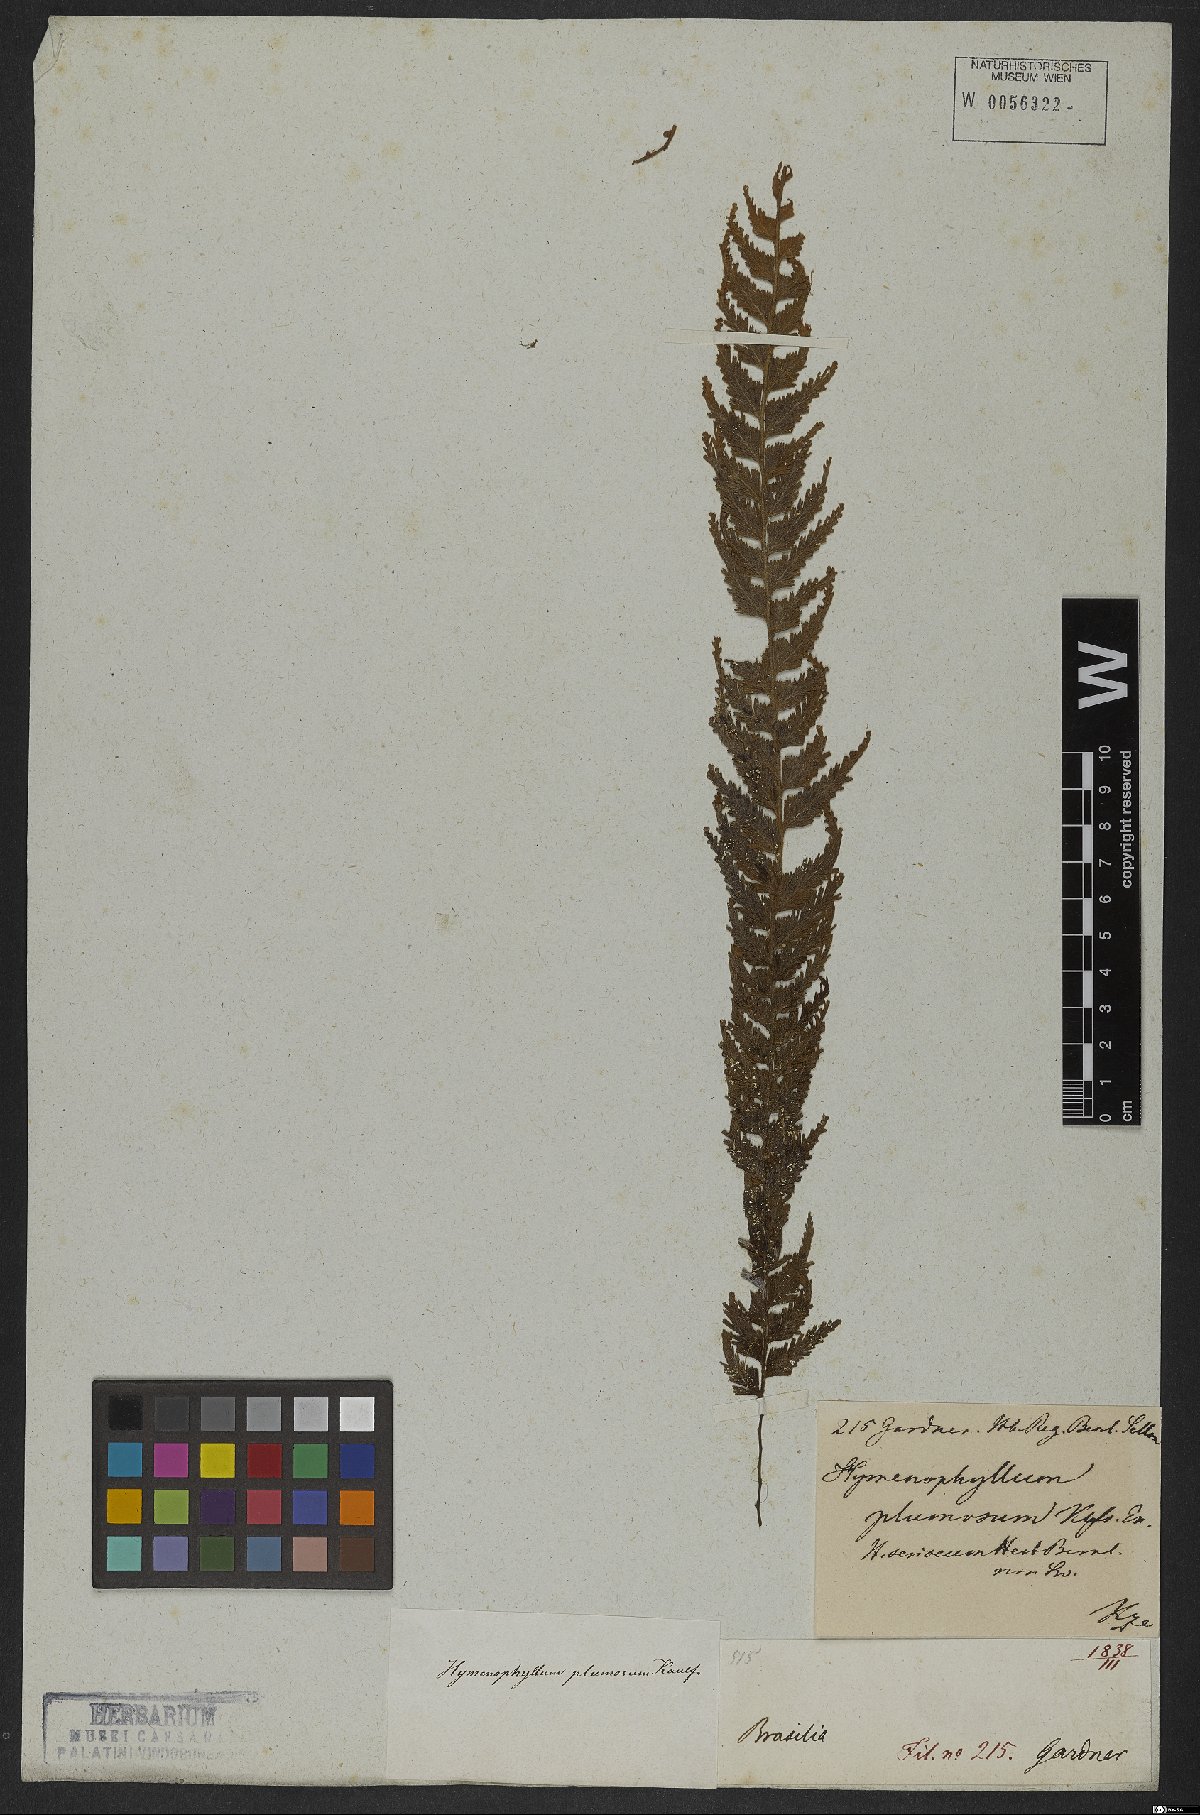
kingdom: Plantae
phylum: Tracheophyta
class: Polypodiopsida
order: Hymenophyllales
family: Hymenophyllaceae
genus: Hymenophyllum
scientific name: Hymenophyllum plumosum
